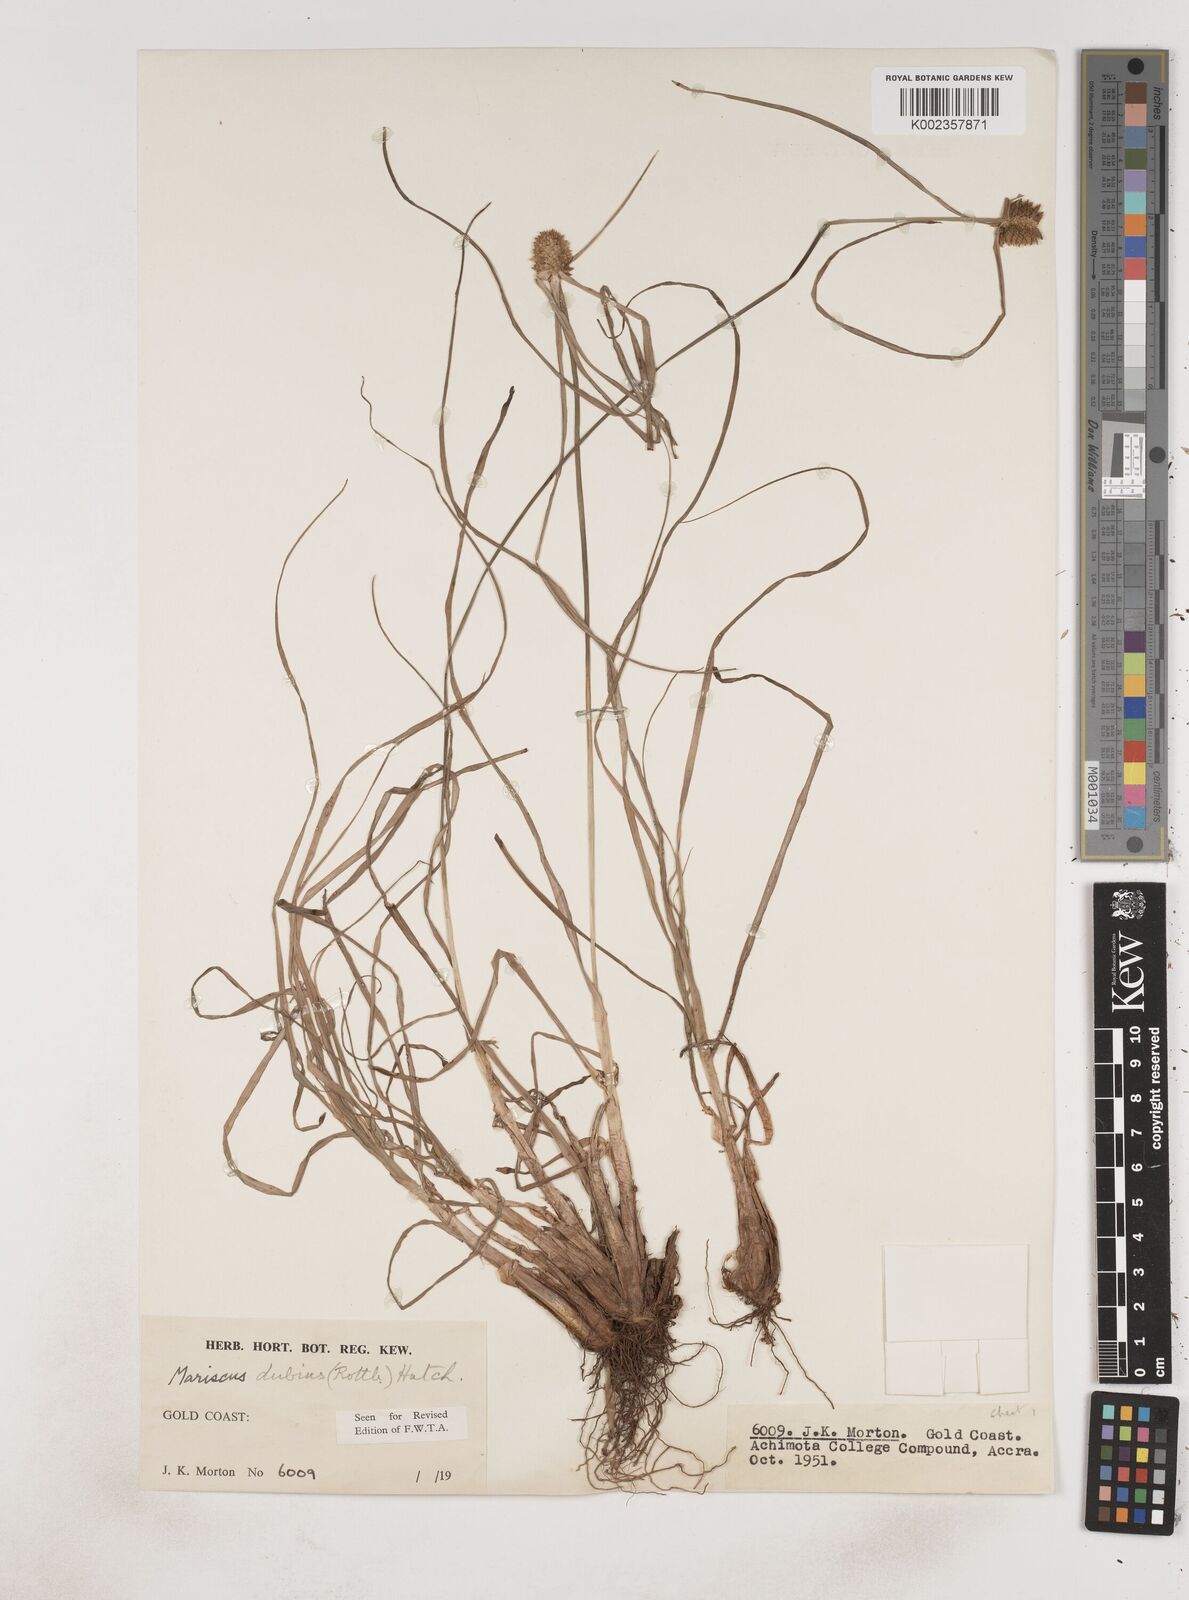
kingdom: Plantae
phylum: Tracheophyta
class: Liliopsida
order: Poales
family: Cyperaceae
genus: Cyperus
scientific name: Cyperus dubius
